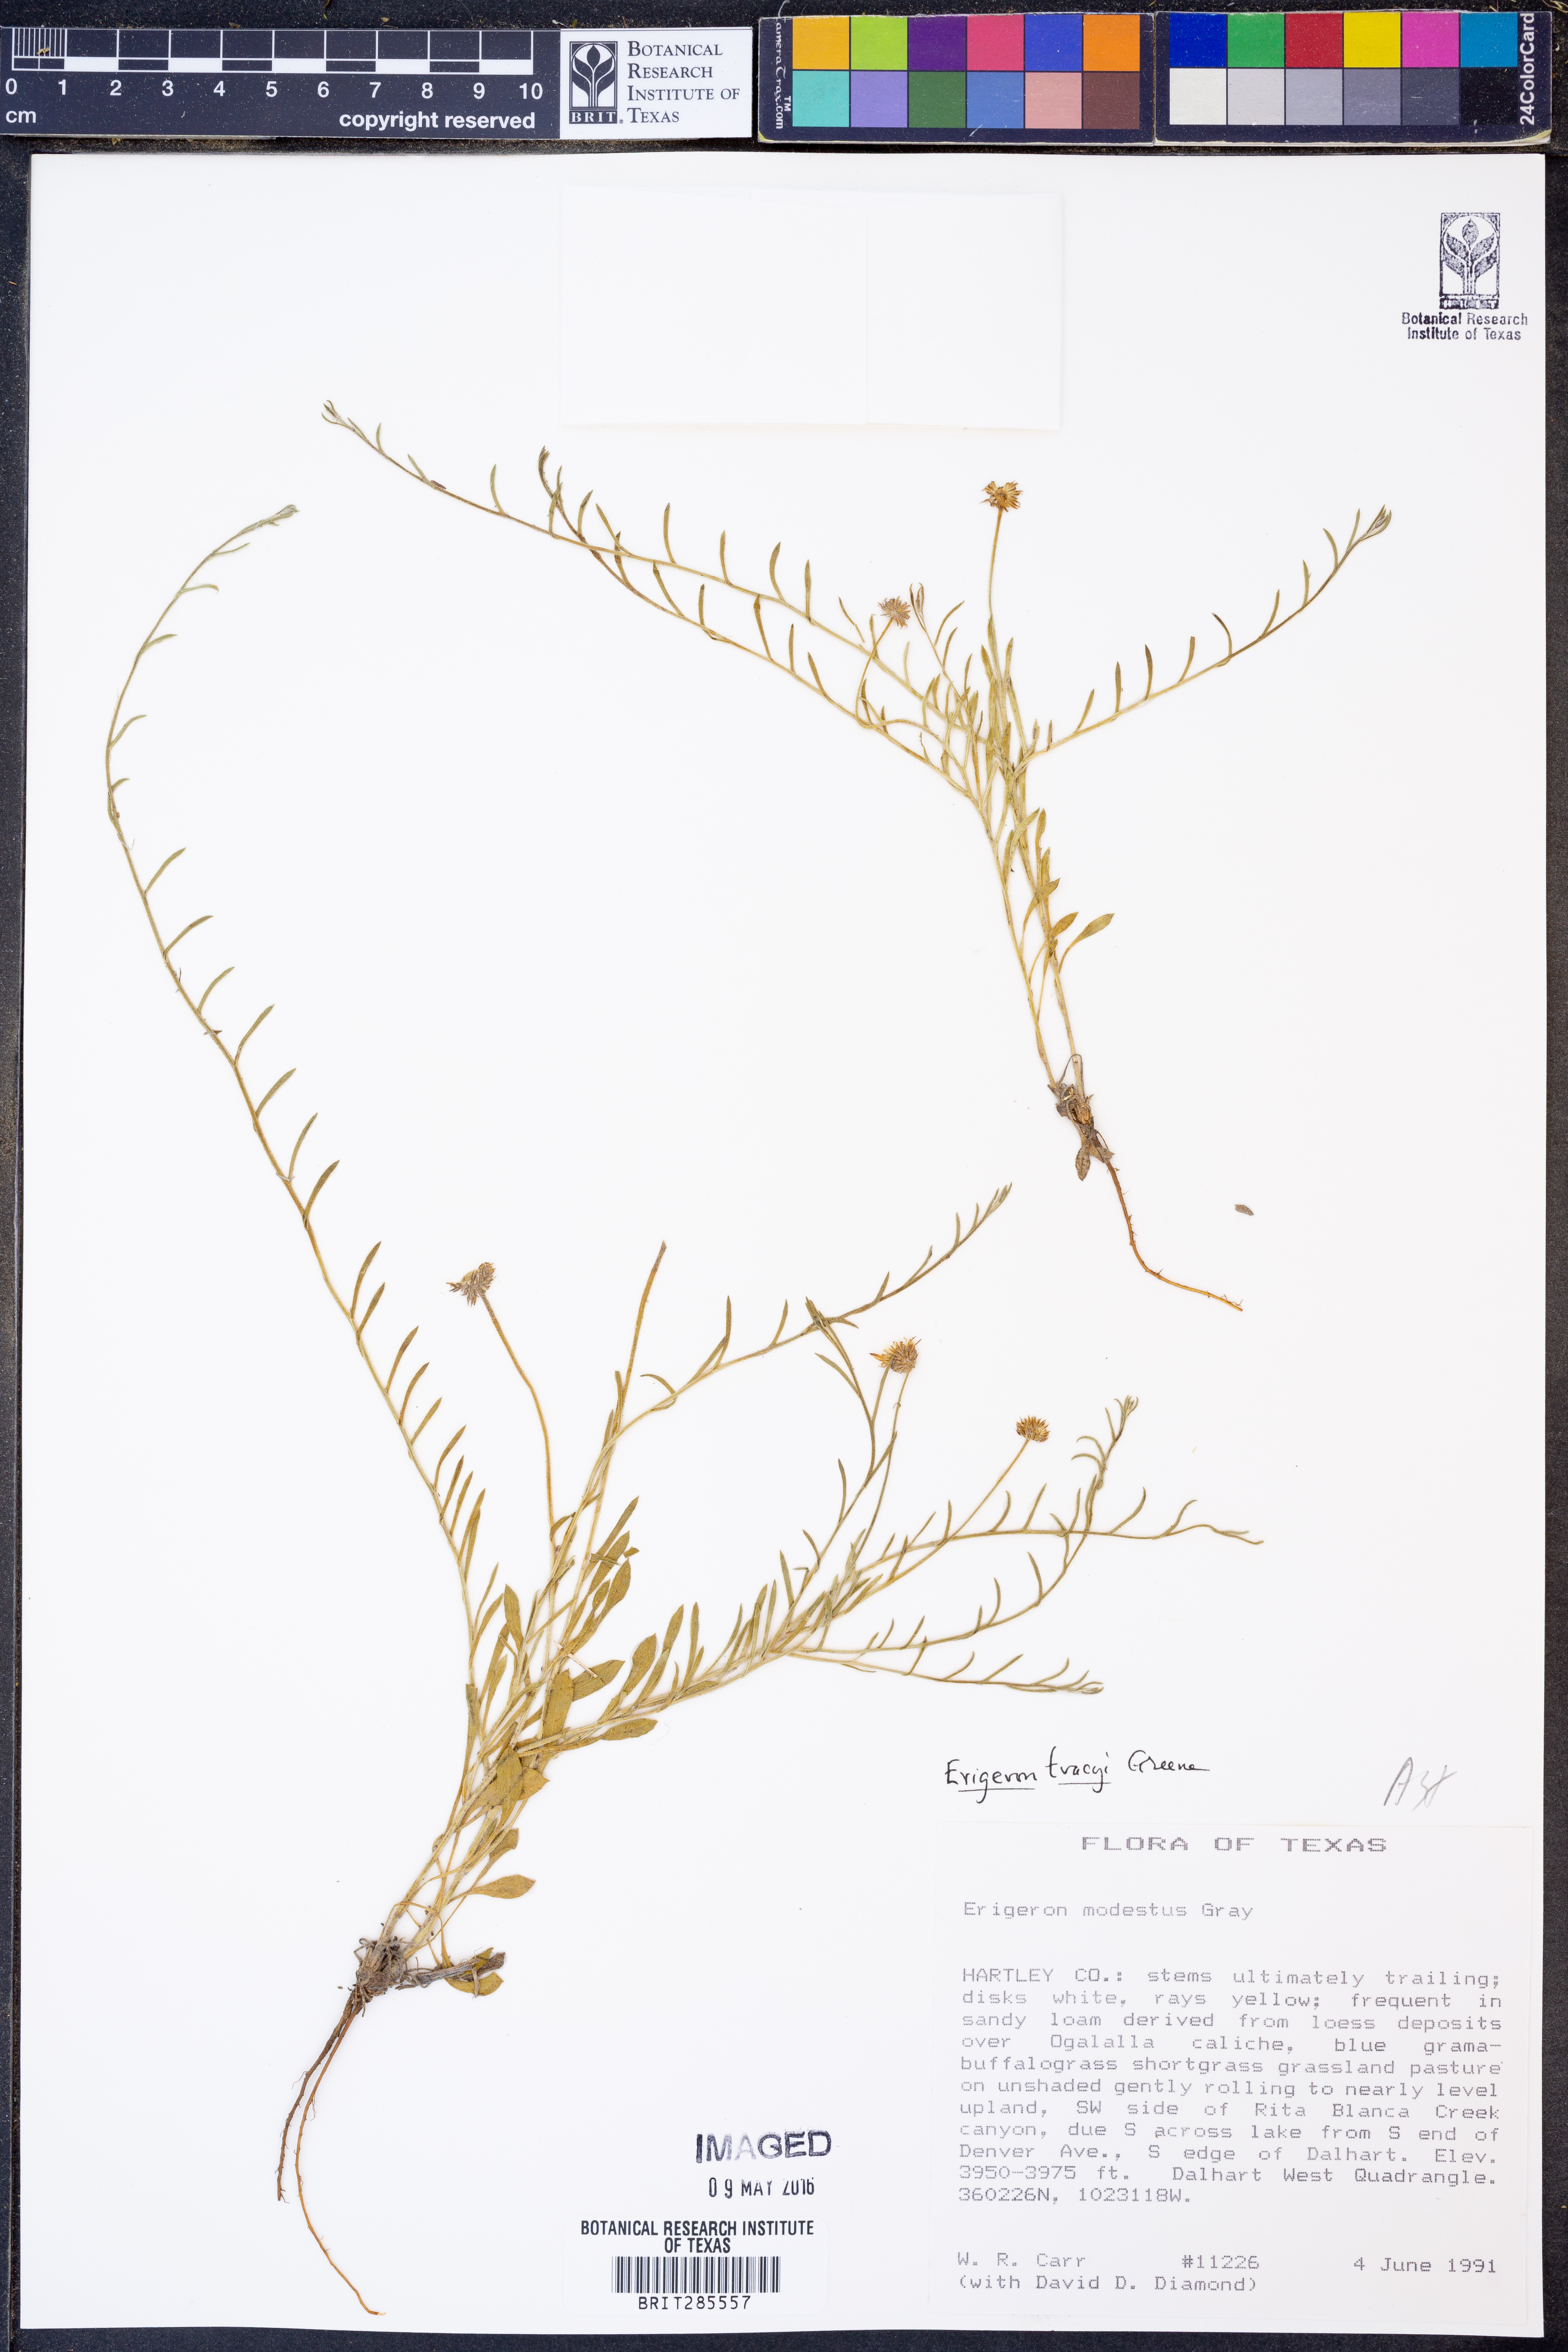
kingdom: Plantae
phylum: Tracheophyta
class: Magnoliopsida
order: Asterales
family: Asteraceae
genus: Erigeron
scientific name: Erigeron tracyi
